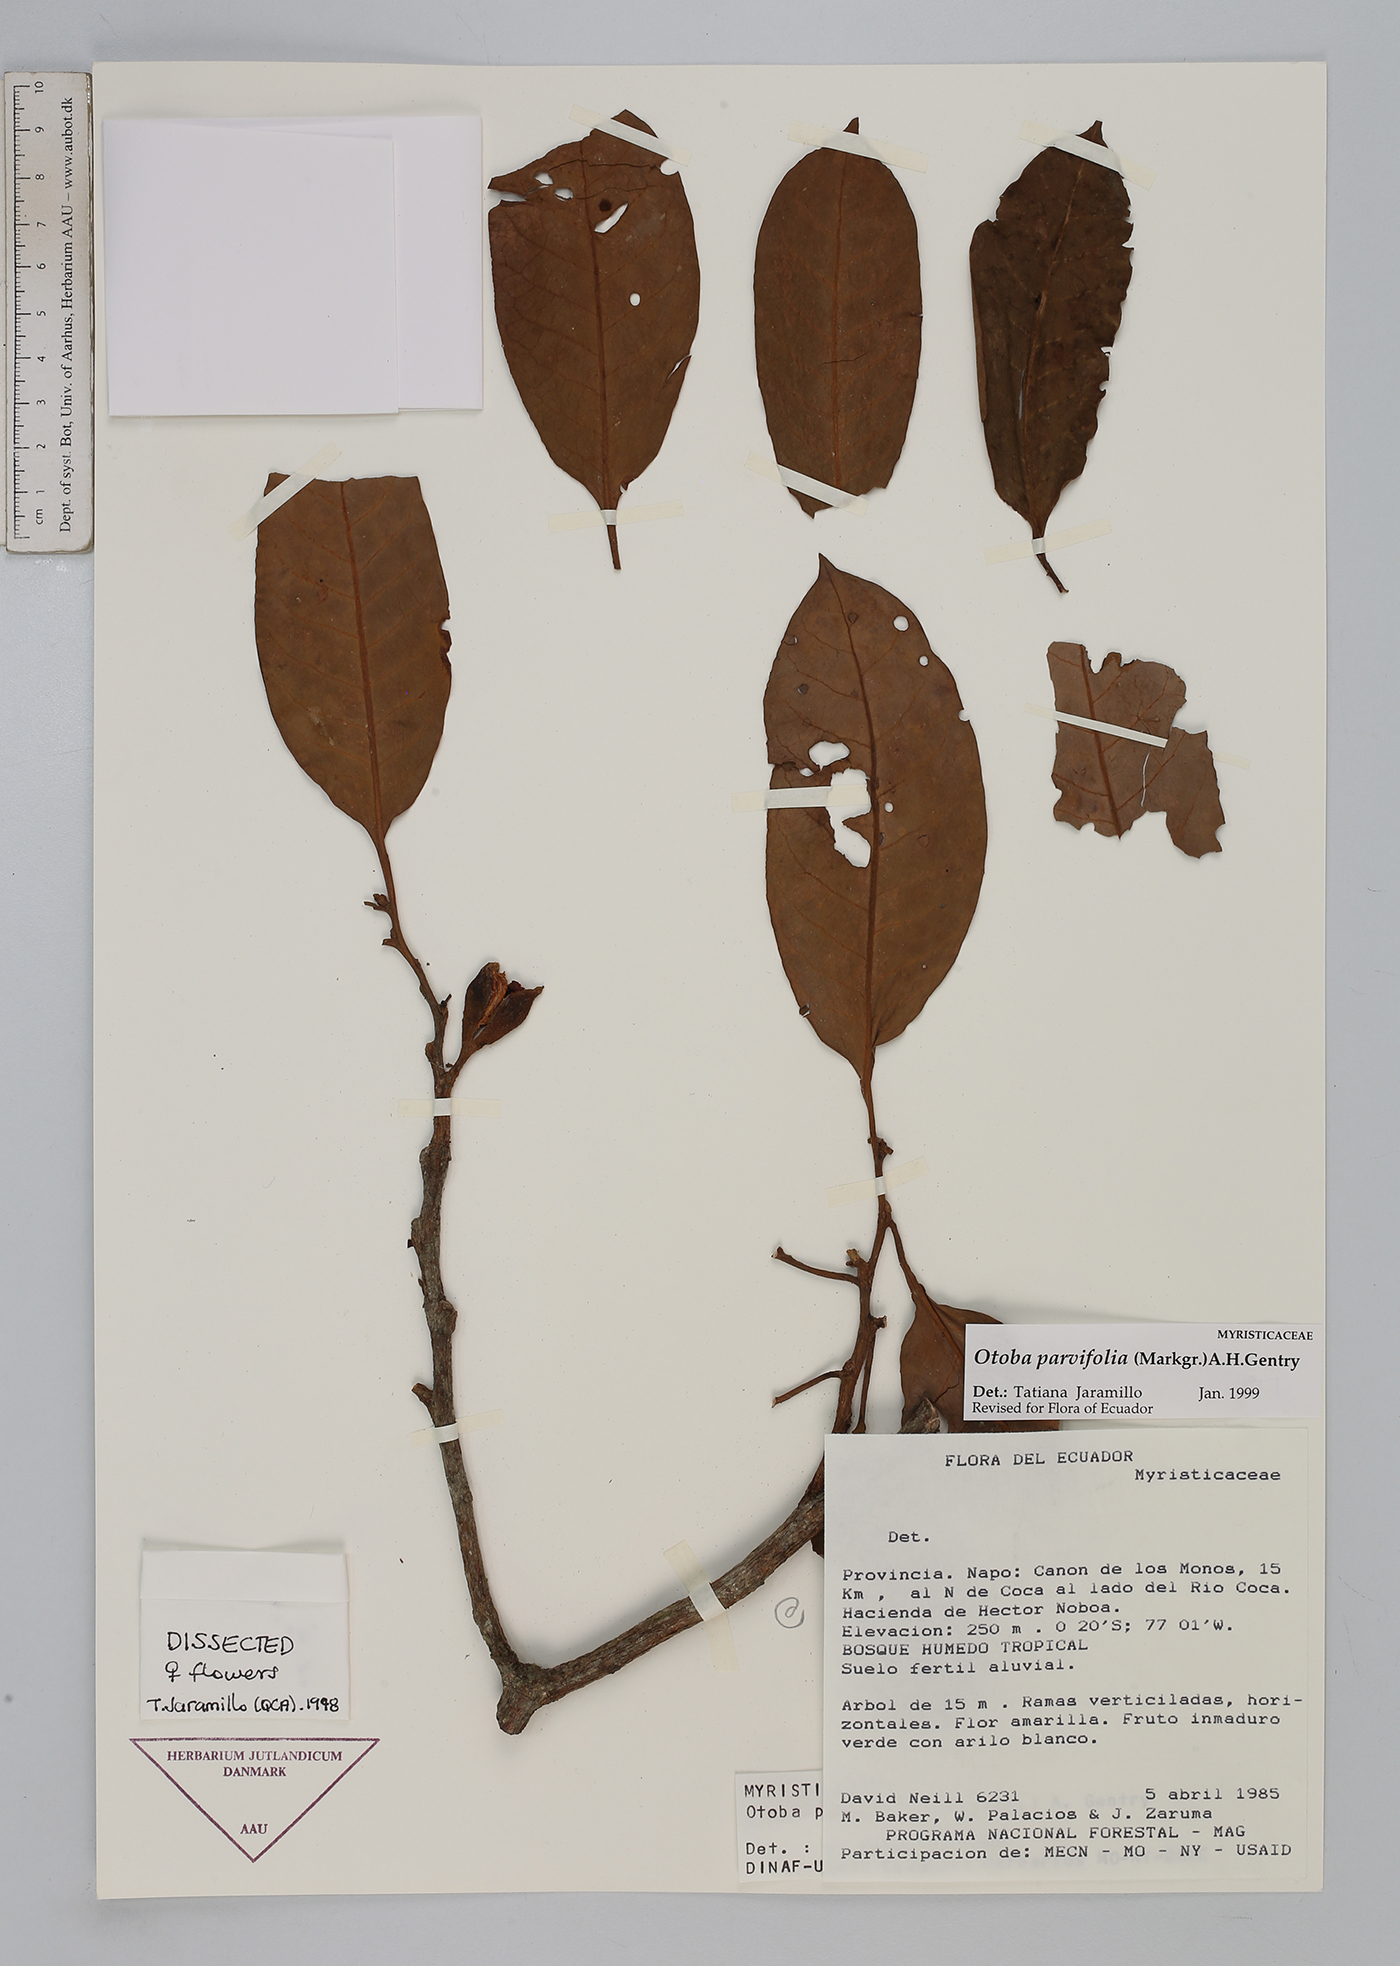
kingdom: Plantae
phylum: Tracheophyta
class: Magnoliopsida
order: Magnoliales
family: Myristicaceae
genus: Otoba
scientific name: Otoba parvifolia
